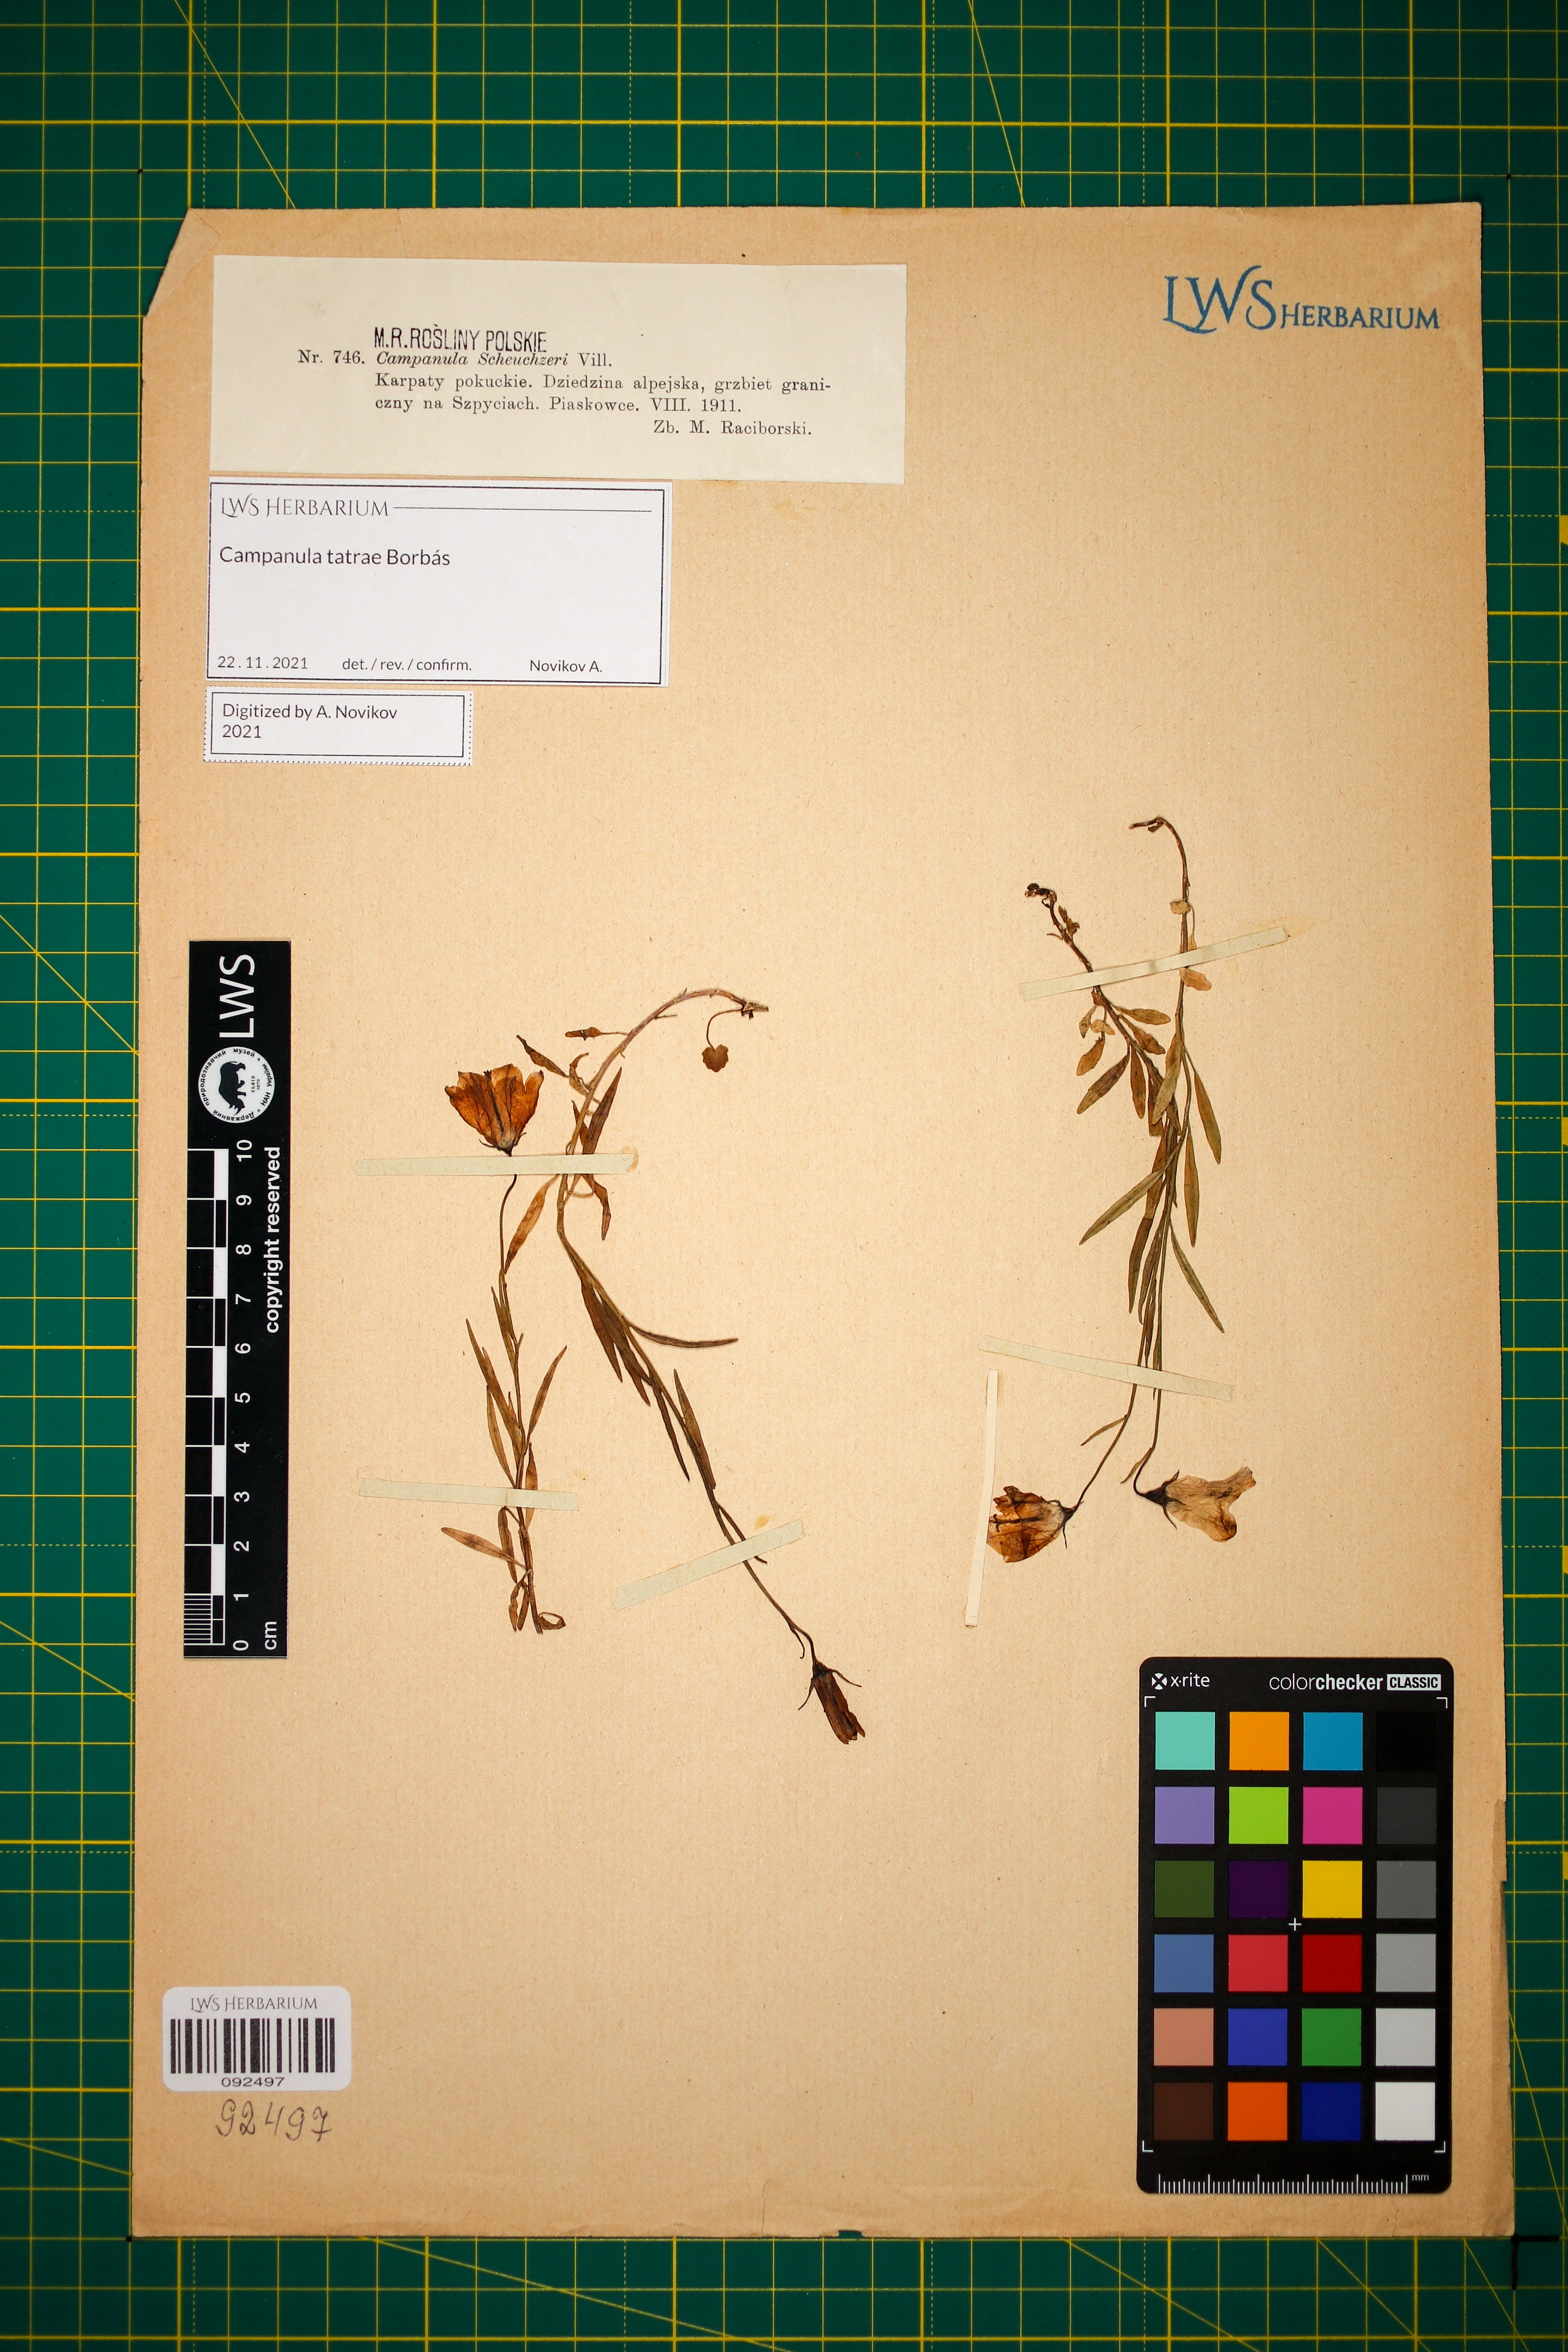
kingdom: Plantae
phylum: Tracheophyta
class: Magnoliopsida
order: Asterales
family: Campanulaceae
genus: Campanula
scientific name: Campanula tatrae
